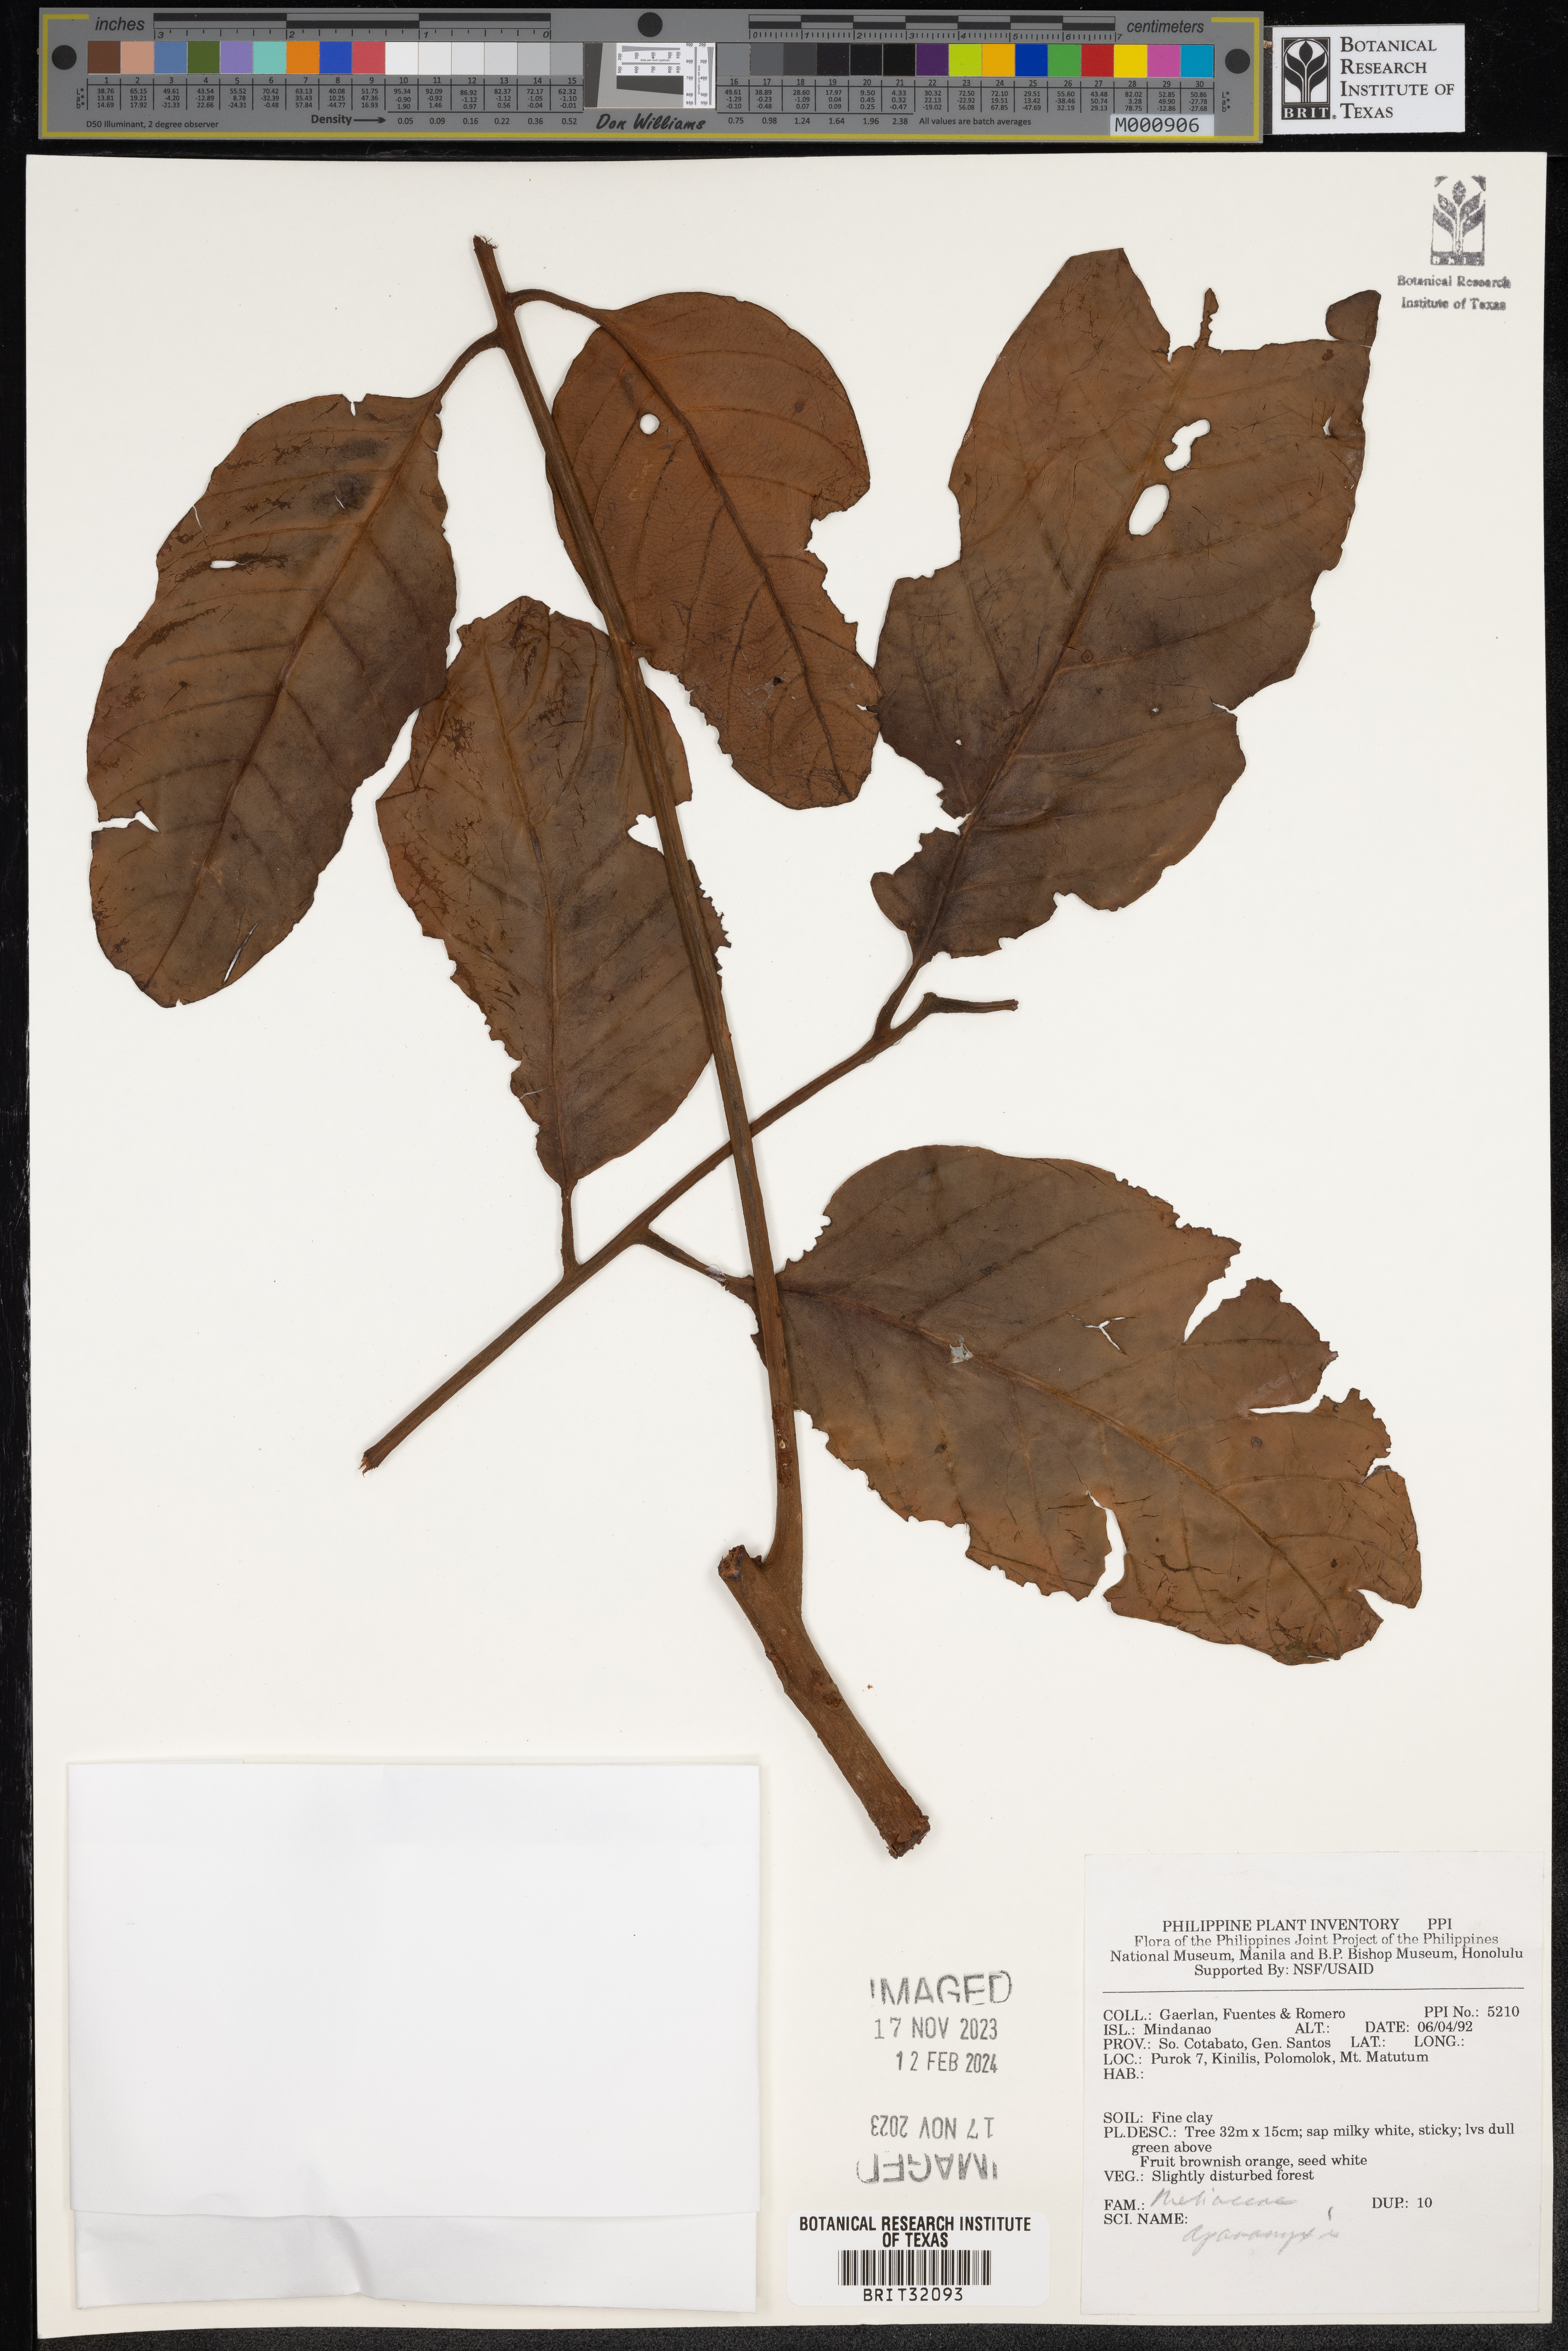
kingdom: Plantae
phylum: Tracheophyta
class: Magnoliopsida
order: Sapindales
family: Meliaceae
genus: Aphanamixis
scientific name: Aphanamixis
